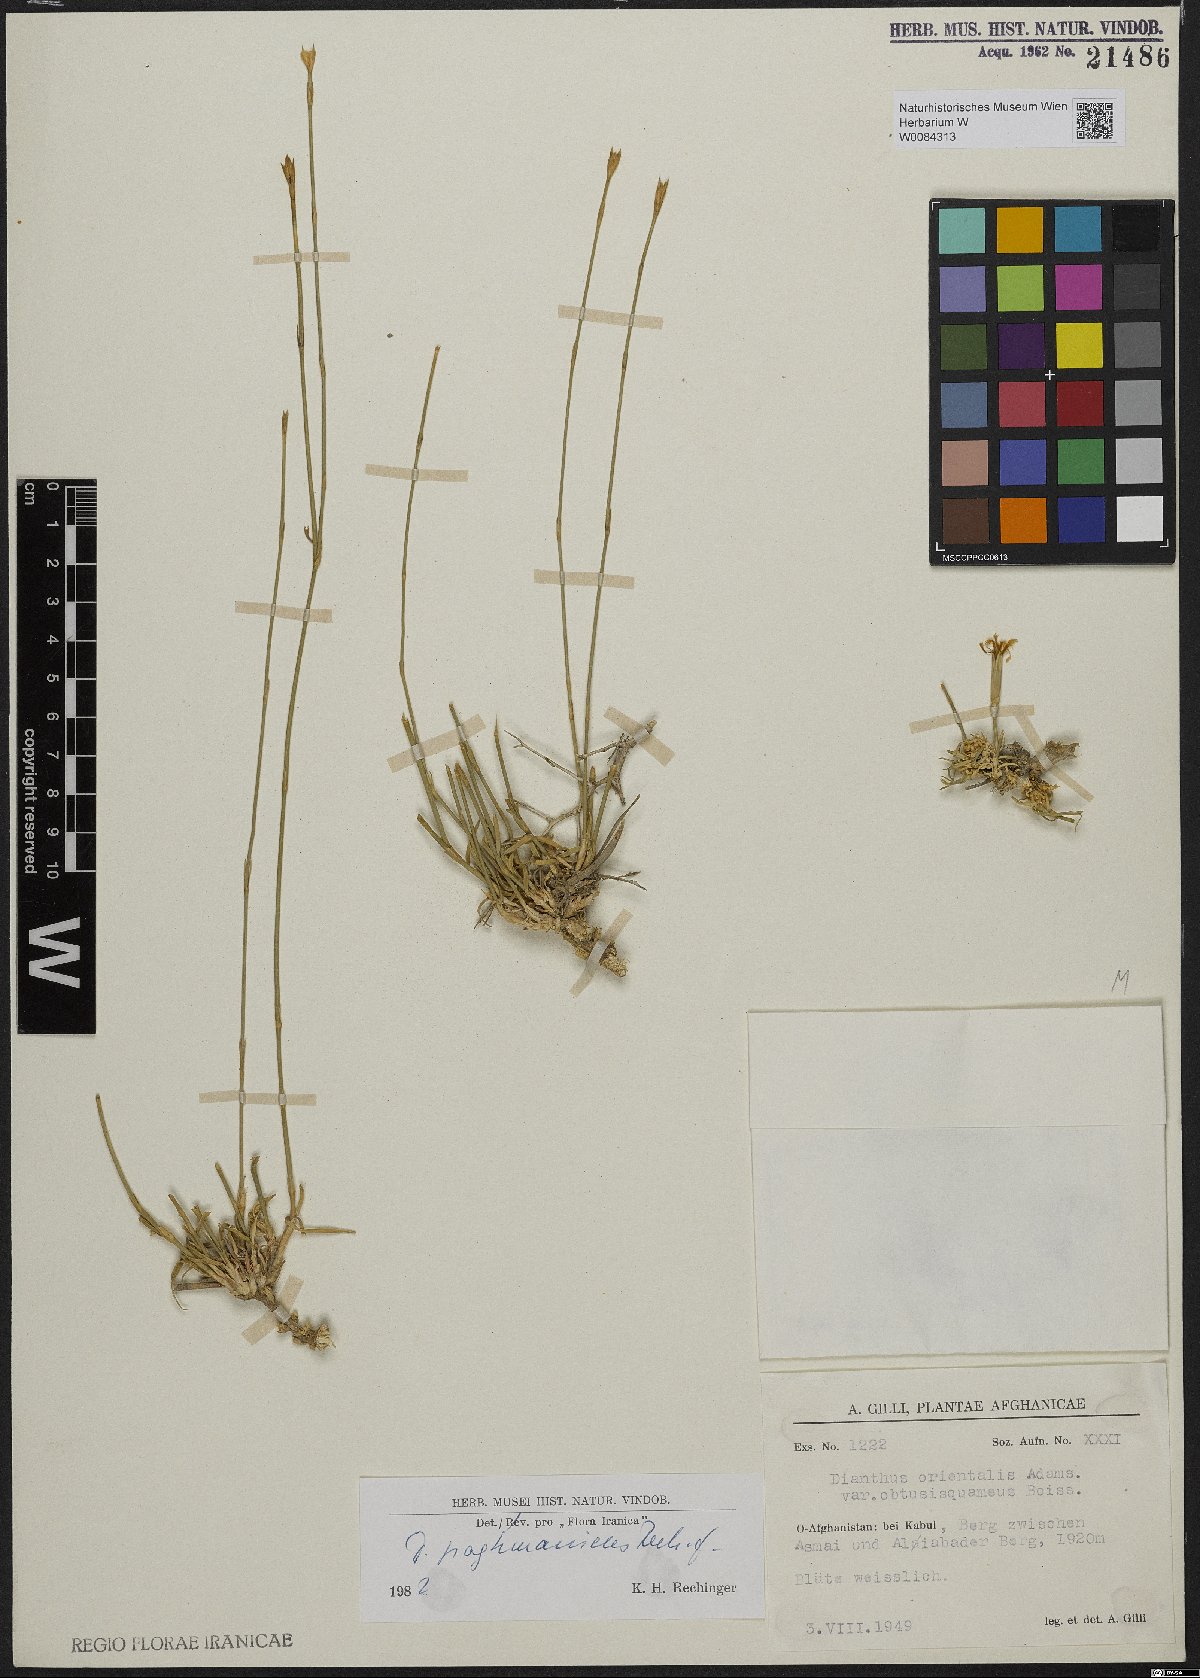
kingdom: Plantae
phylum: Tracheophyta
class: Magnoliopsida
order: Caryophyllales
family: Caryophyllaceae
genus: Dianthus
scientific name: Dianthus paghmanicus
